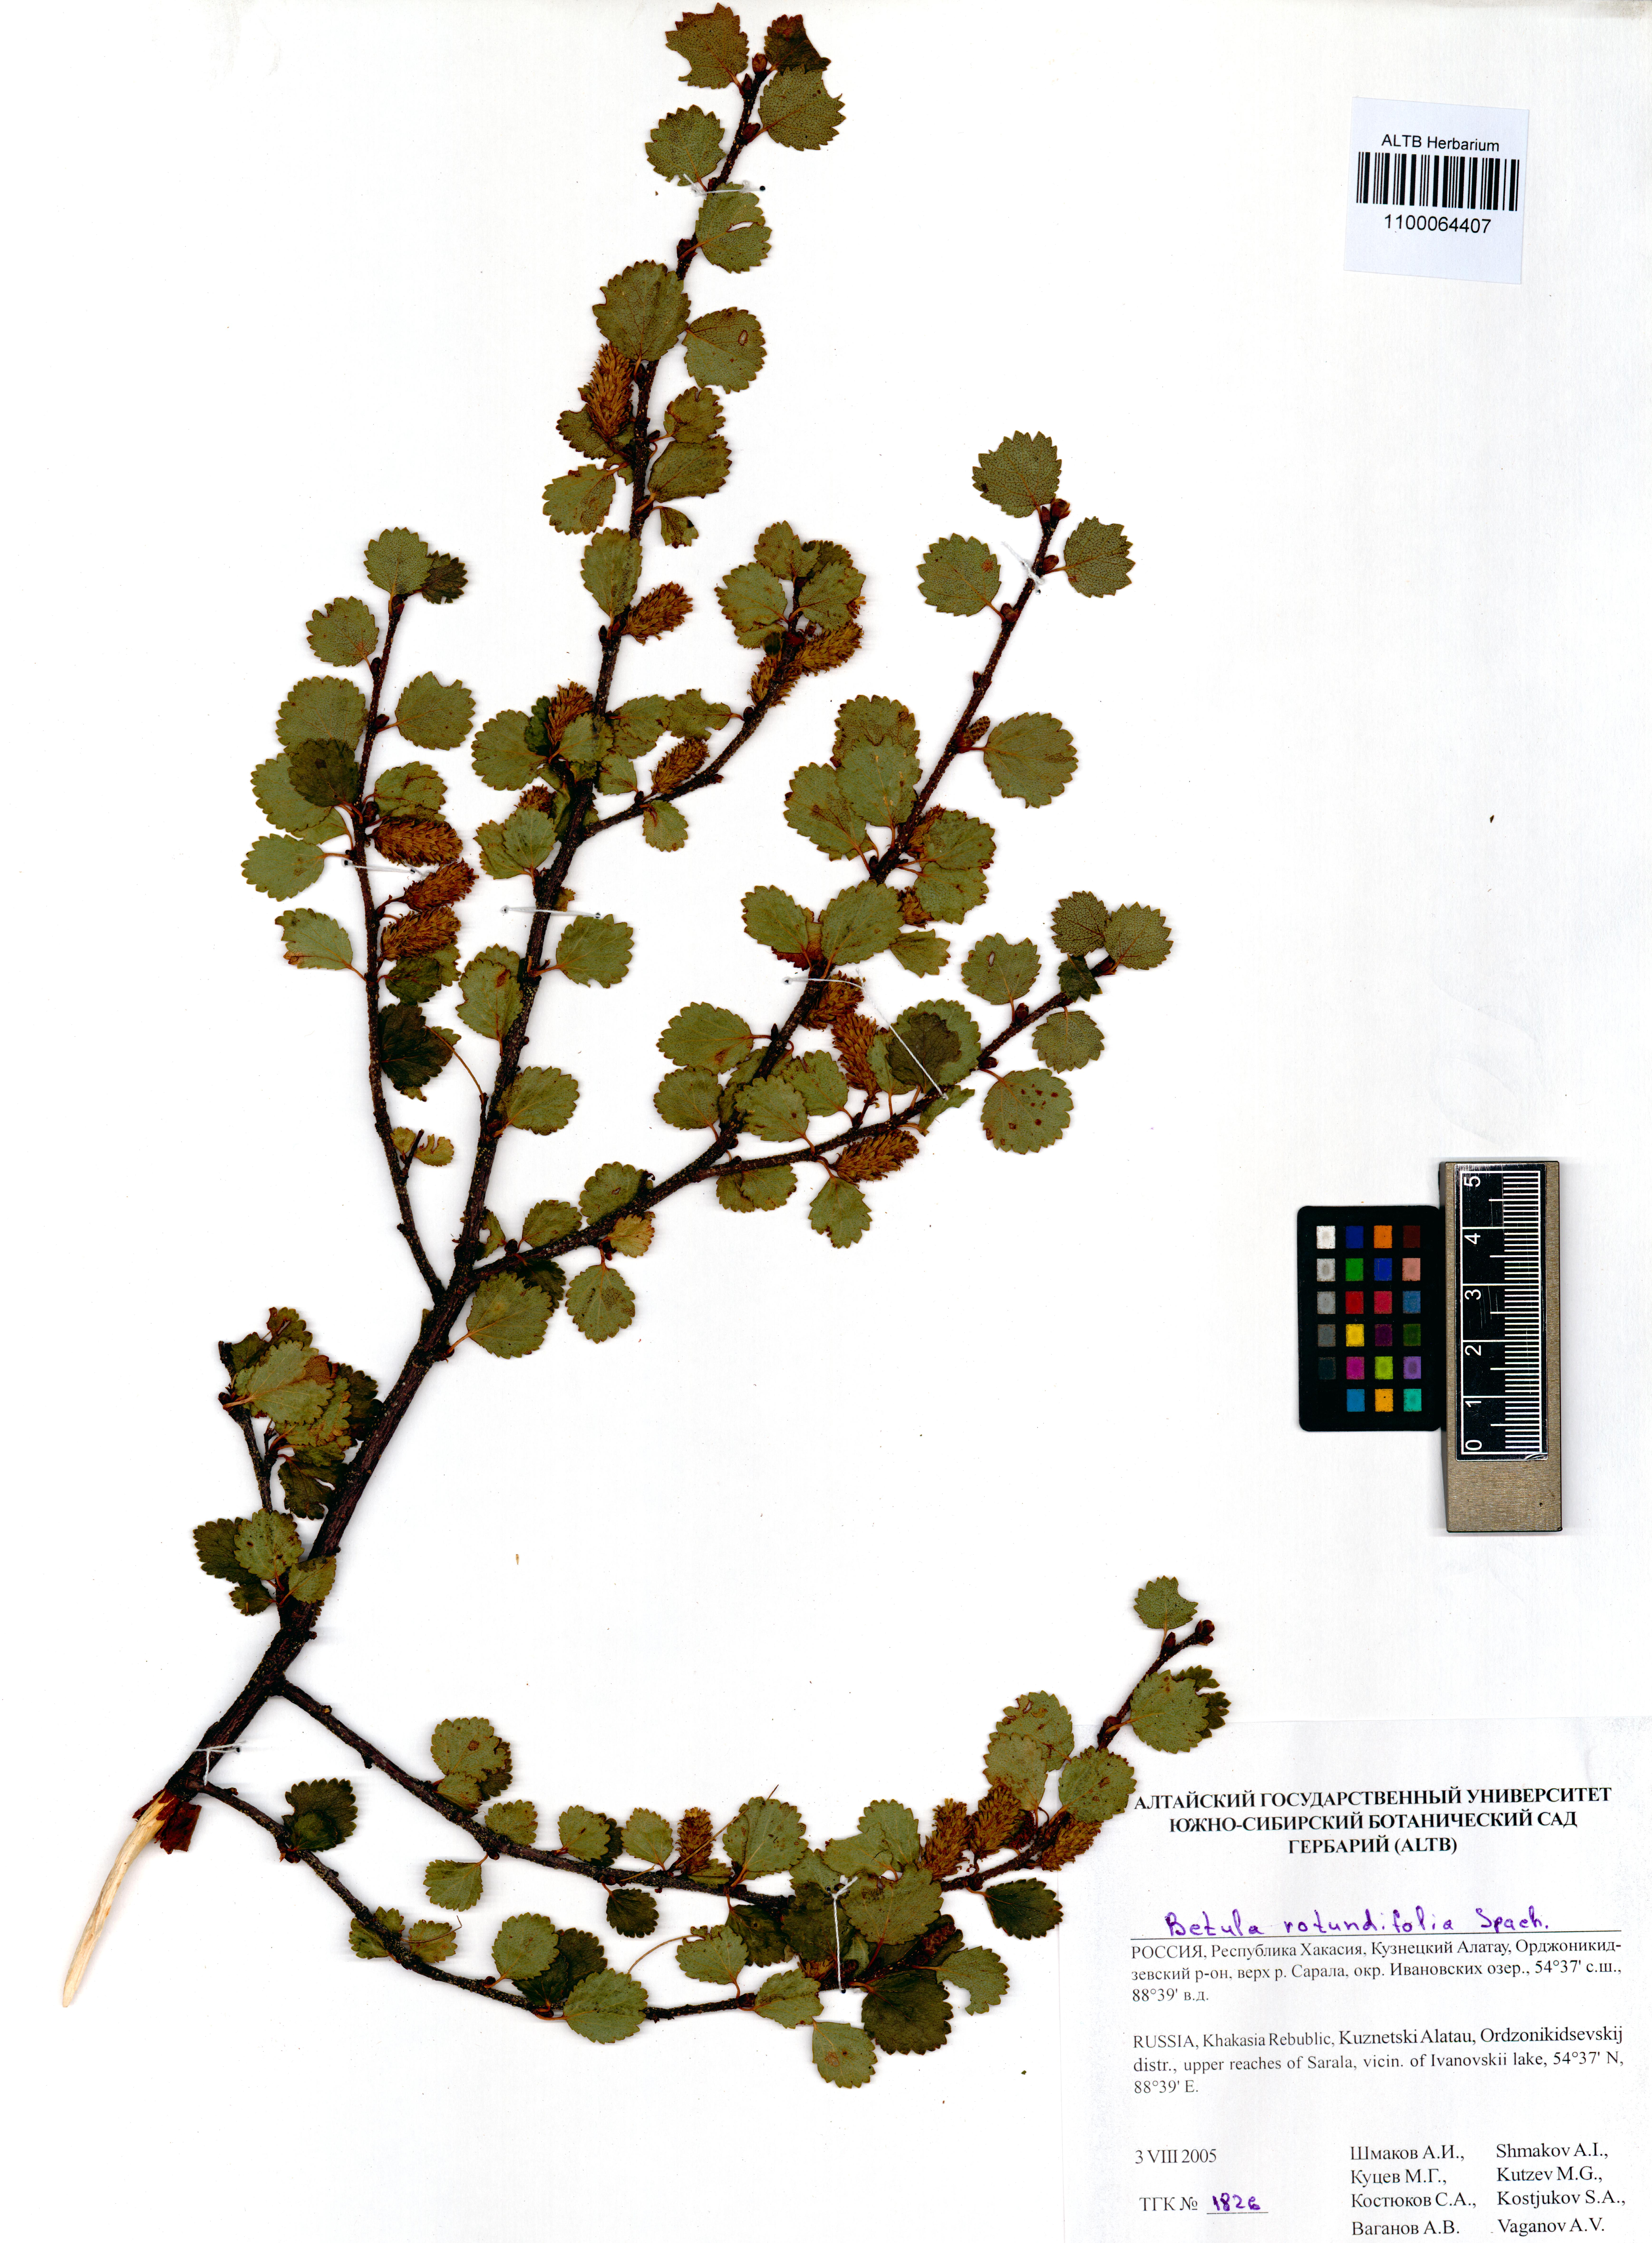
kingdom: Plantae
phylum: Tracheophyta
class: Magnoliopsida
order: Fagales
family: Betulaceae
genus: Betula
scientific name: Betula glandulosa
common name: Dwarf birch
